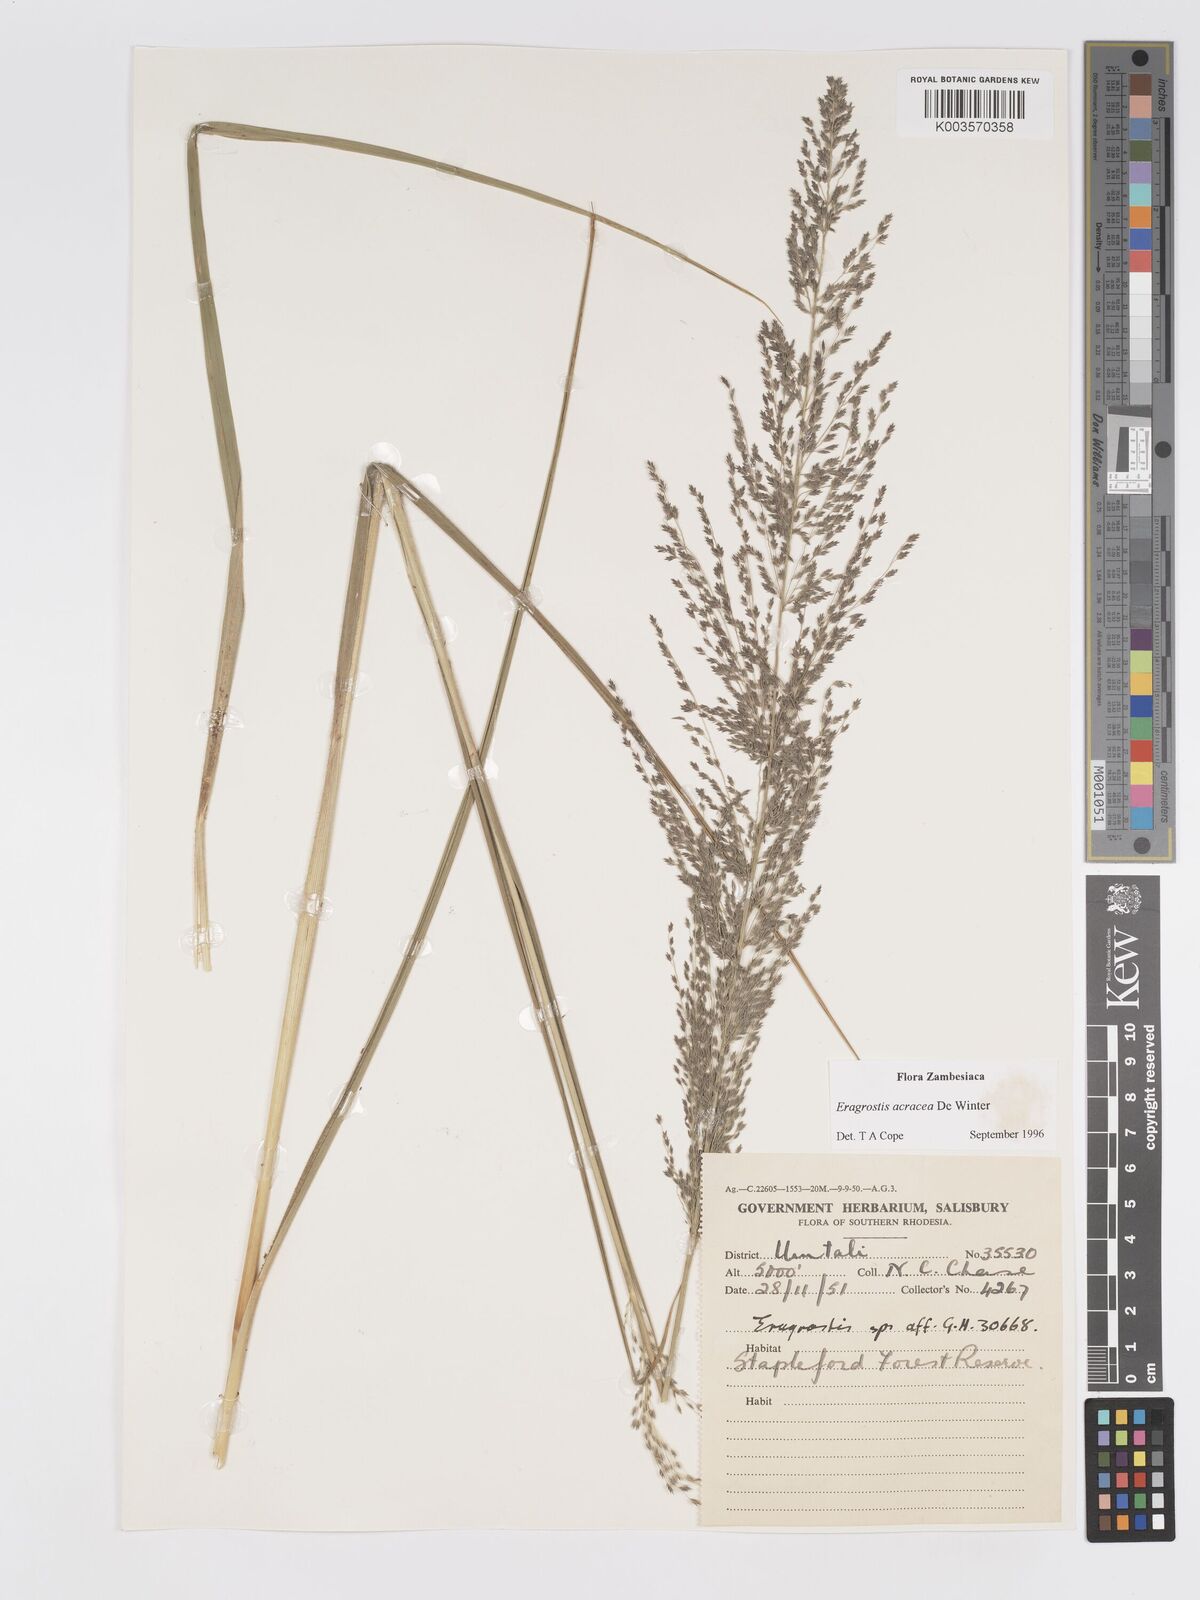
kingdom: Plantae
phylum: Tracheophyta
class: Liliopsida
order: Poales
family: Poaceae
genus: Eragrostis
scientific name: Eragrostis acraea
